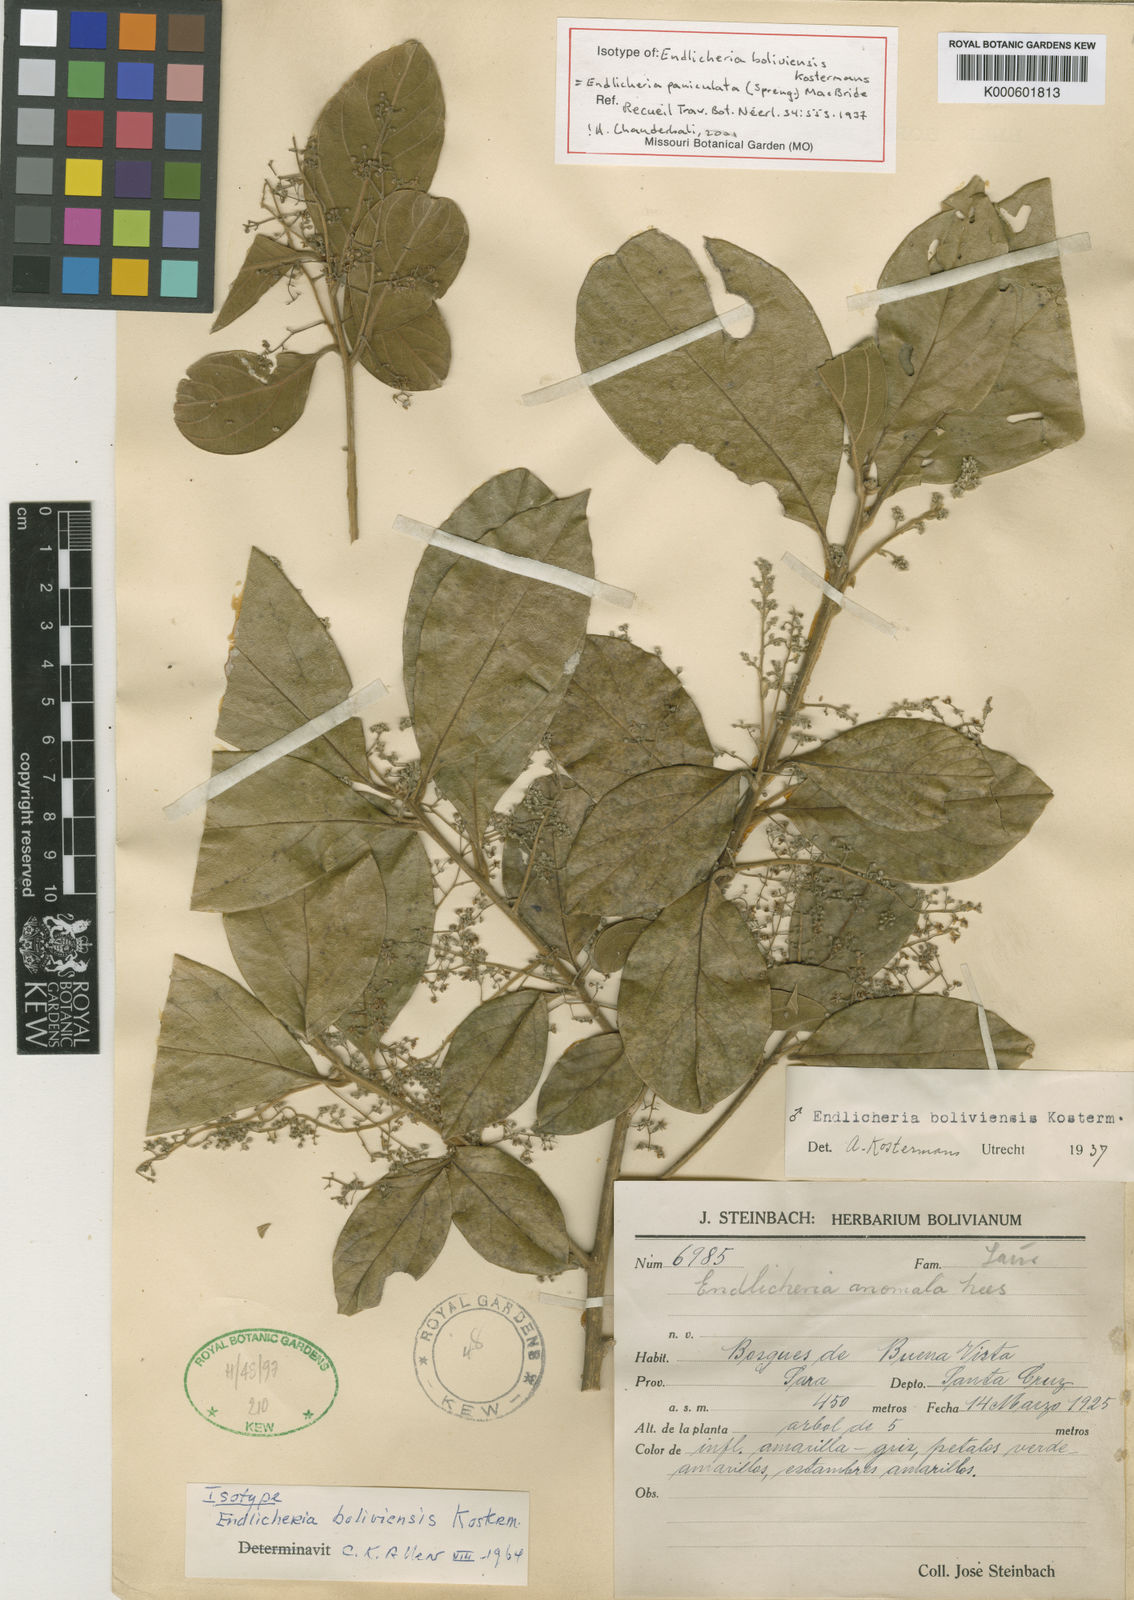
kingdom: Plantae
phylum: Tracheophyta
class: Magnoliopsida
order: Laurales
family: Lauraceae
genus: Endlicheria
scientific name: Endlicheria paniculata
